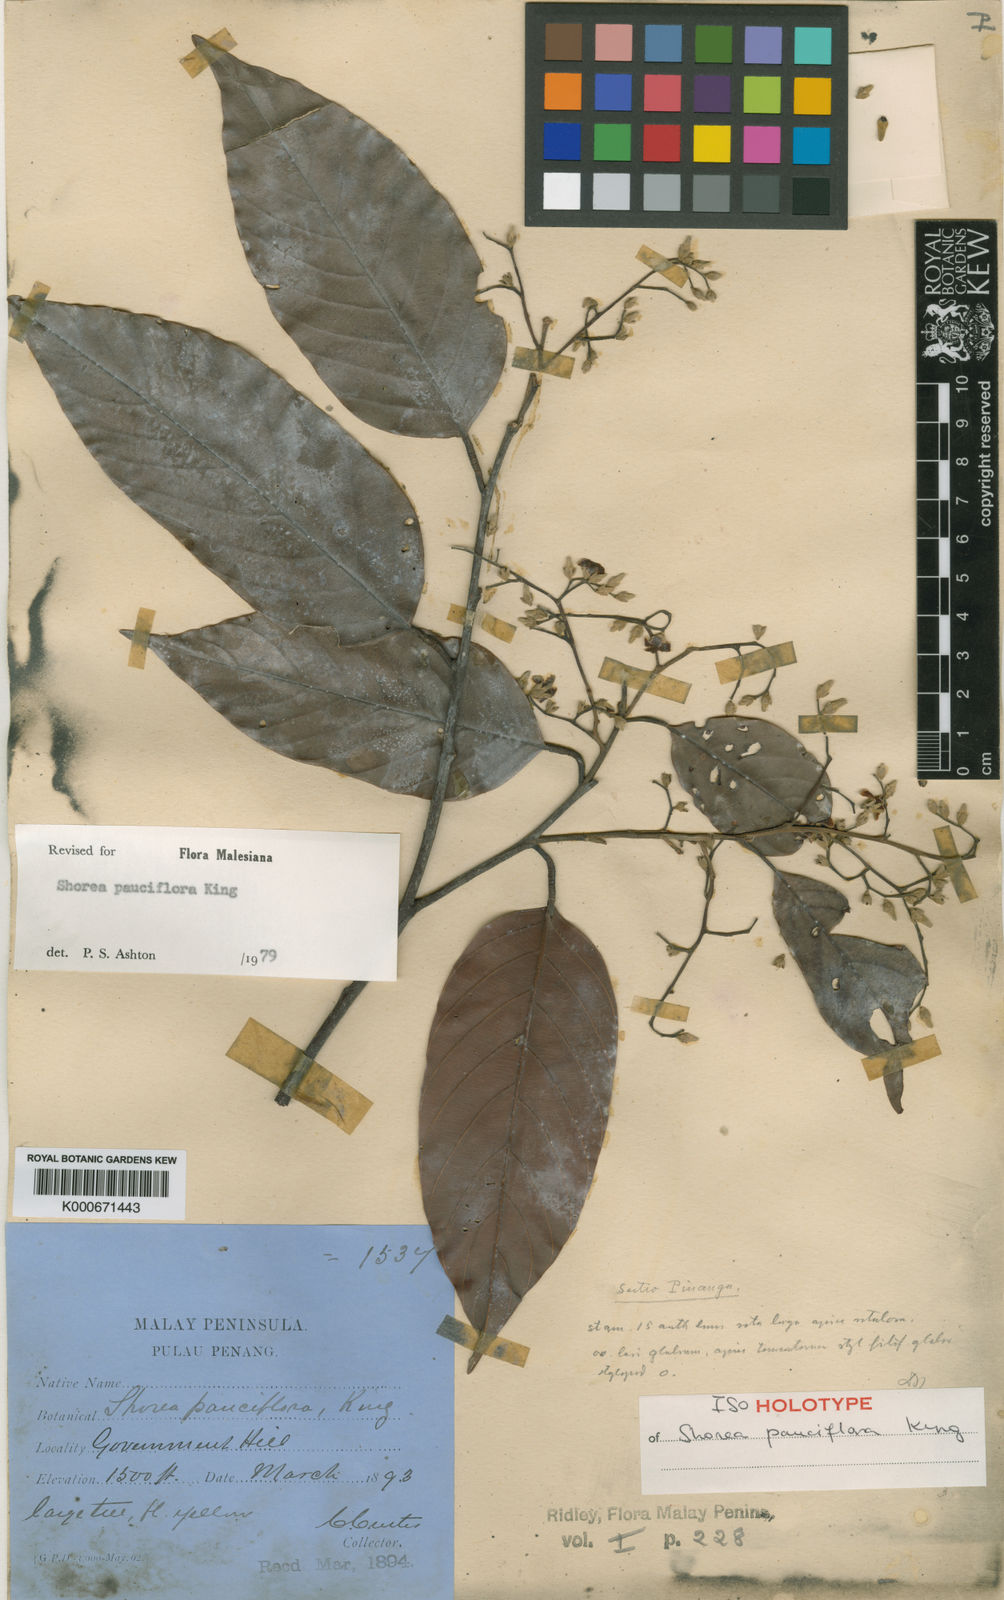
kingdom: Plantae
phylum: Tracheophyta
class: Magnoliopsida
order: Malvales
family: Dipterocarpaceae
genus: Shorea
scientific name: Shorea pauciflora
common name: Dark red meranti
